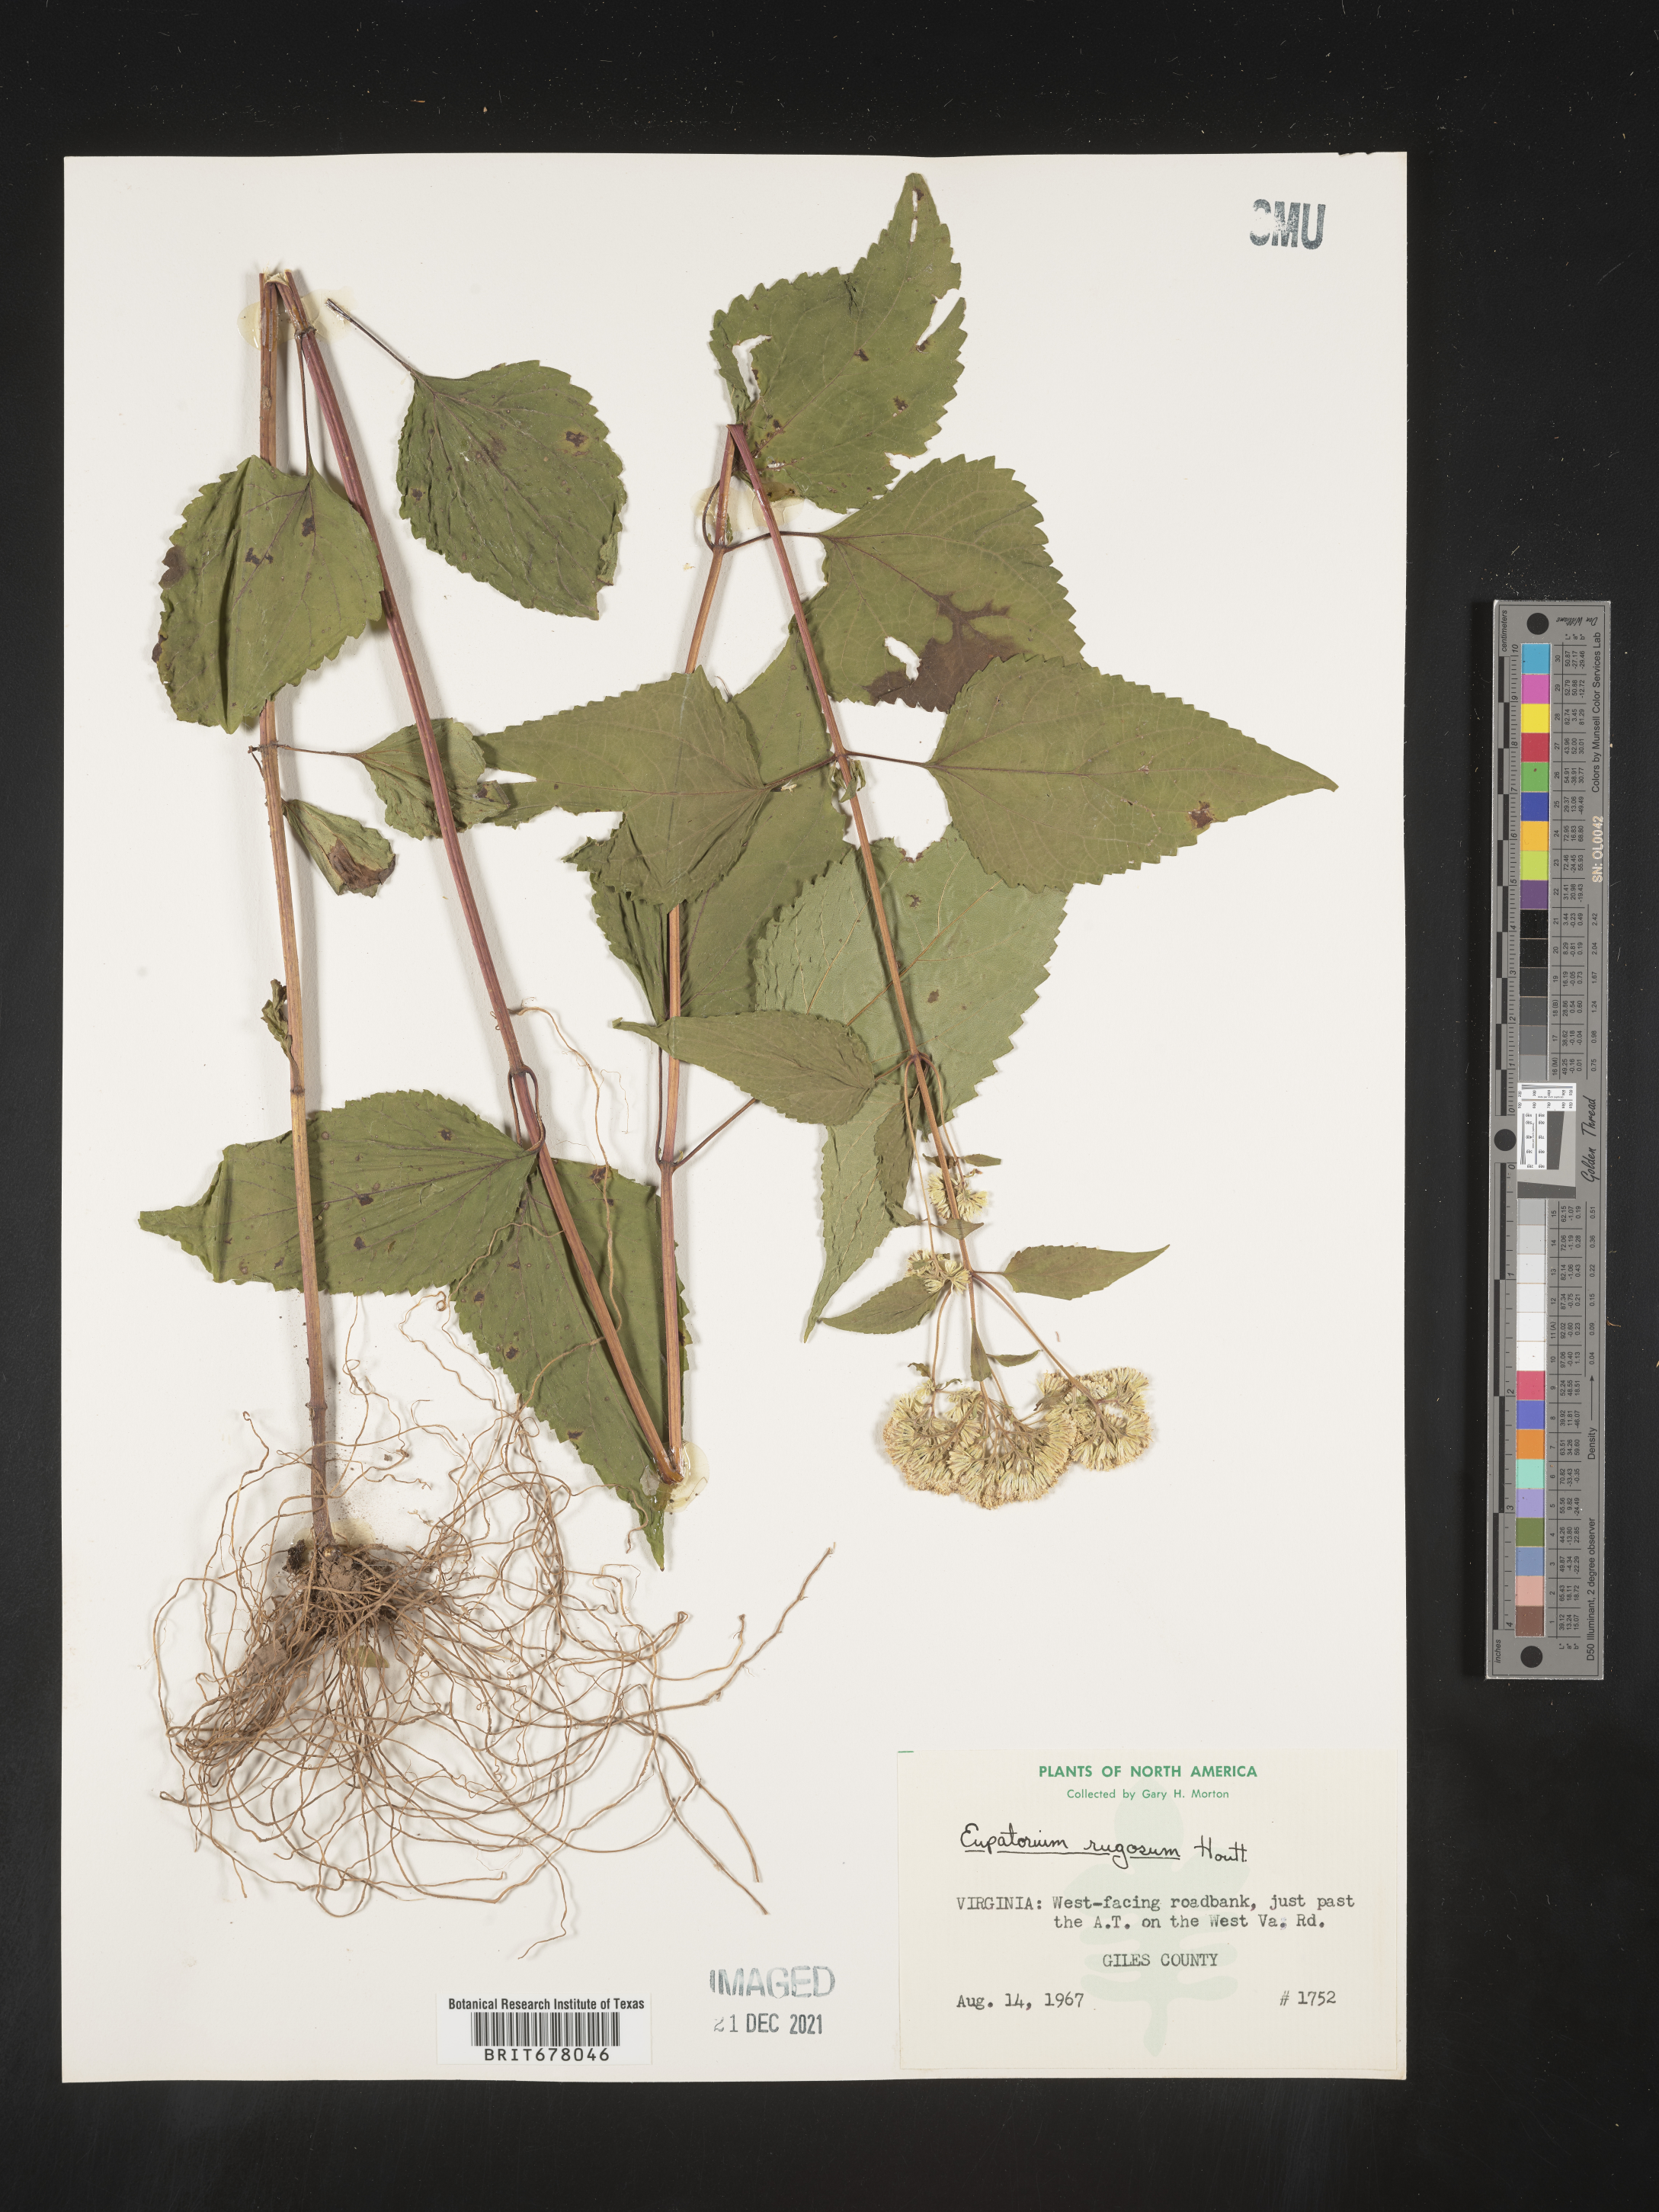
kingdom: Plantae
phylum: Tracheophyta
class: Magnoliopsida
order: Asterales
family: Asteraceae
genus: Eupatorium
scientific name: Eupatorium
